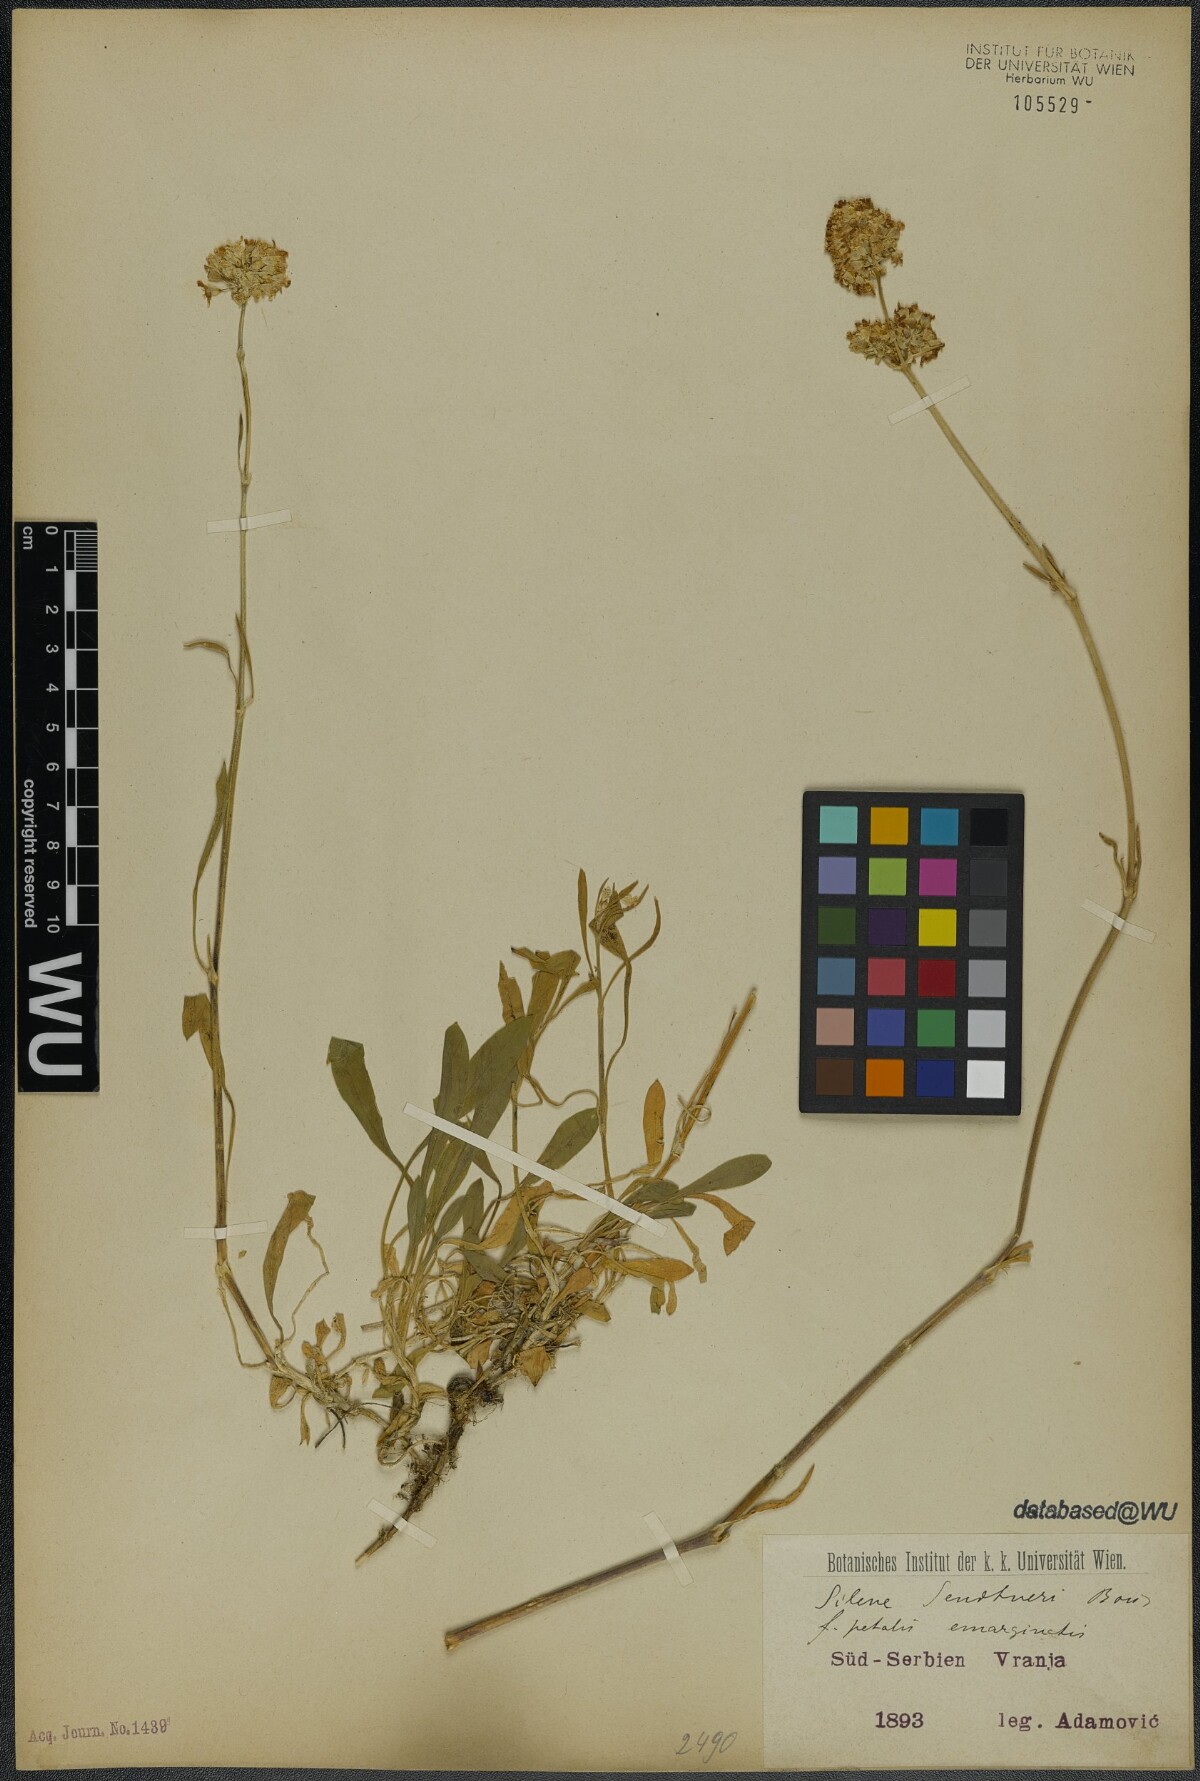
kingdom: Plantae
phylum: Tracheophyta
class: Magnoliopsida
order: Caryophyllales
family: Caryophyllaceae
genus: Silene
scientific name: Silene sendtneri
